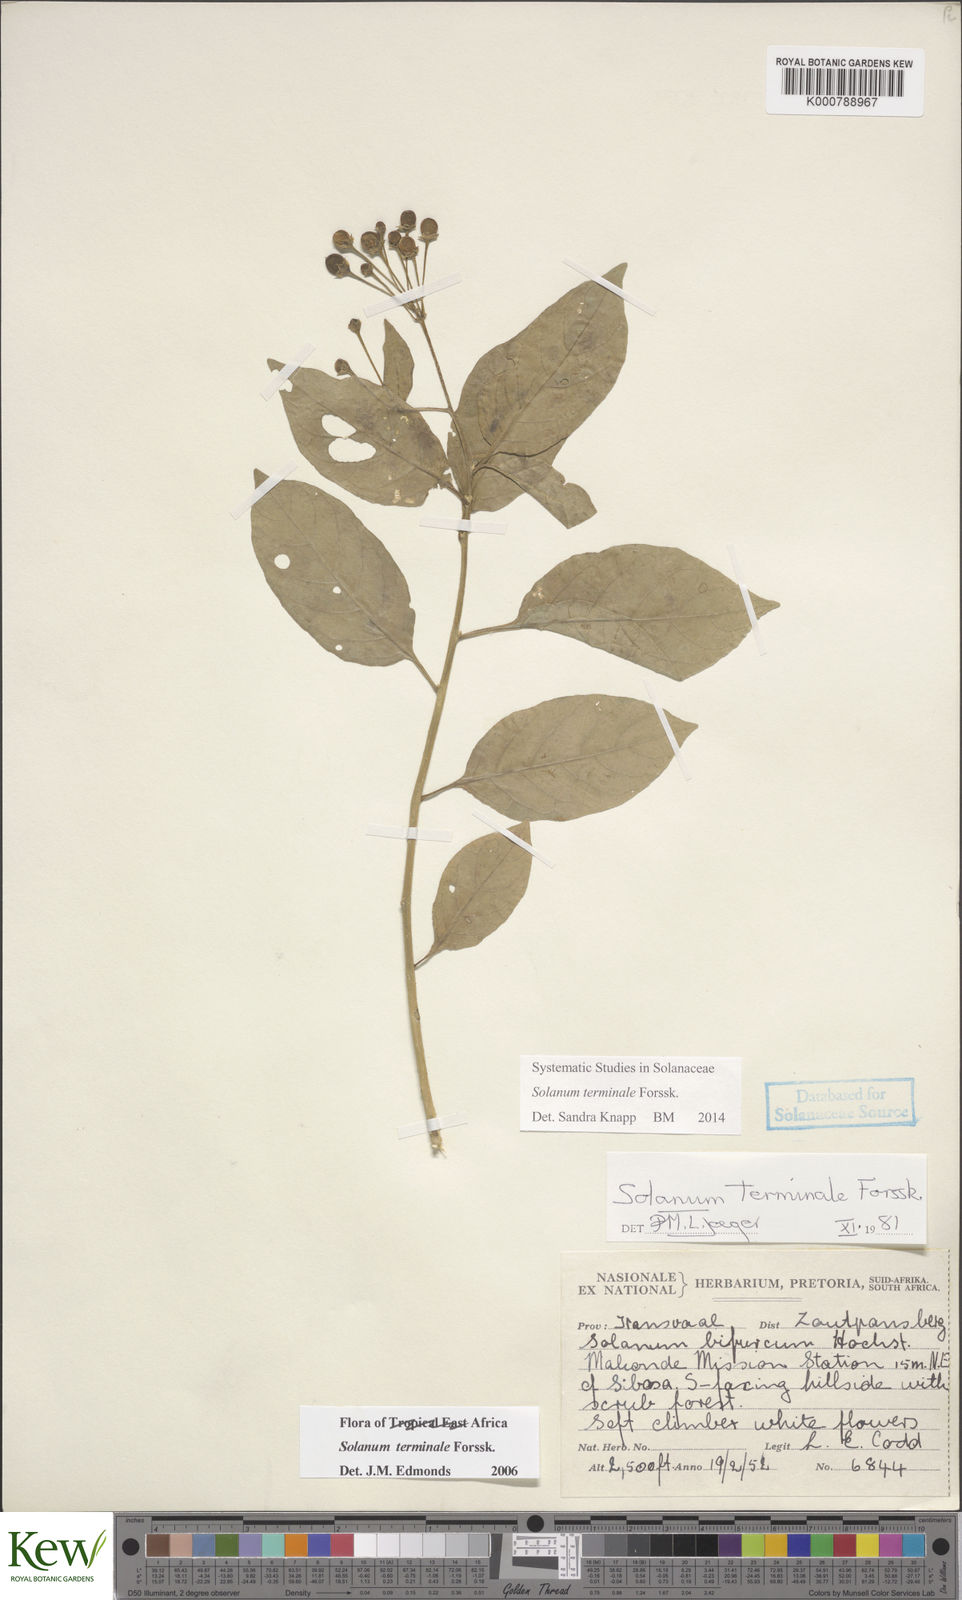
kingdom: Plantae
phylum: Tracheophyta
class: Magnoliopsida
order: Solanales
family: Solanaceae
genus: Solanum
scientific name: Solanum terminale
